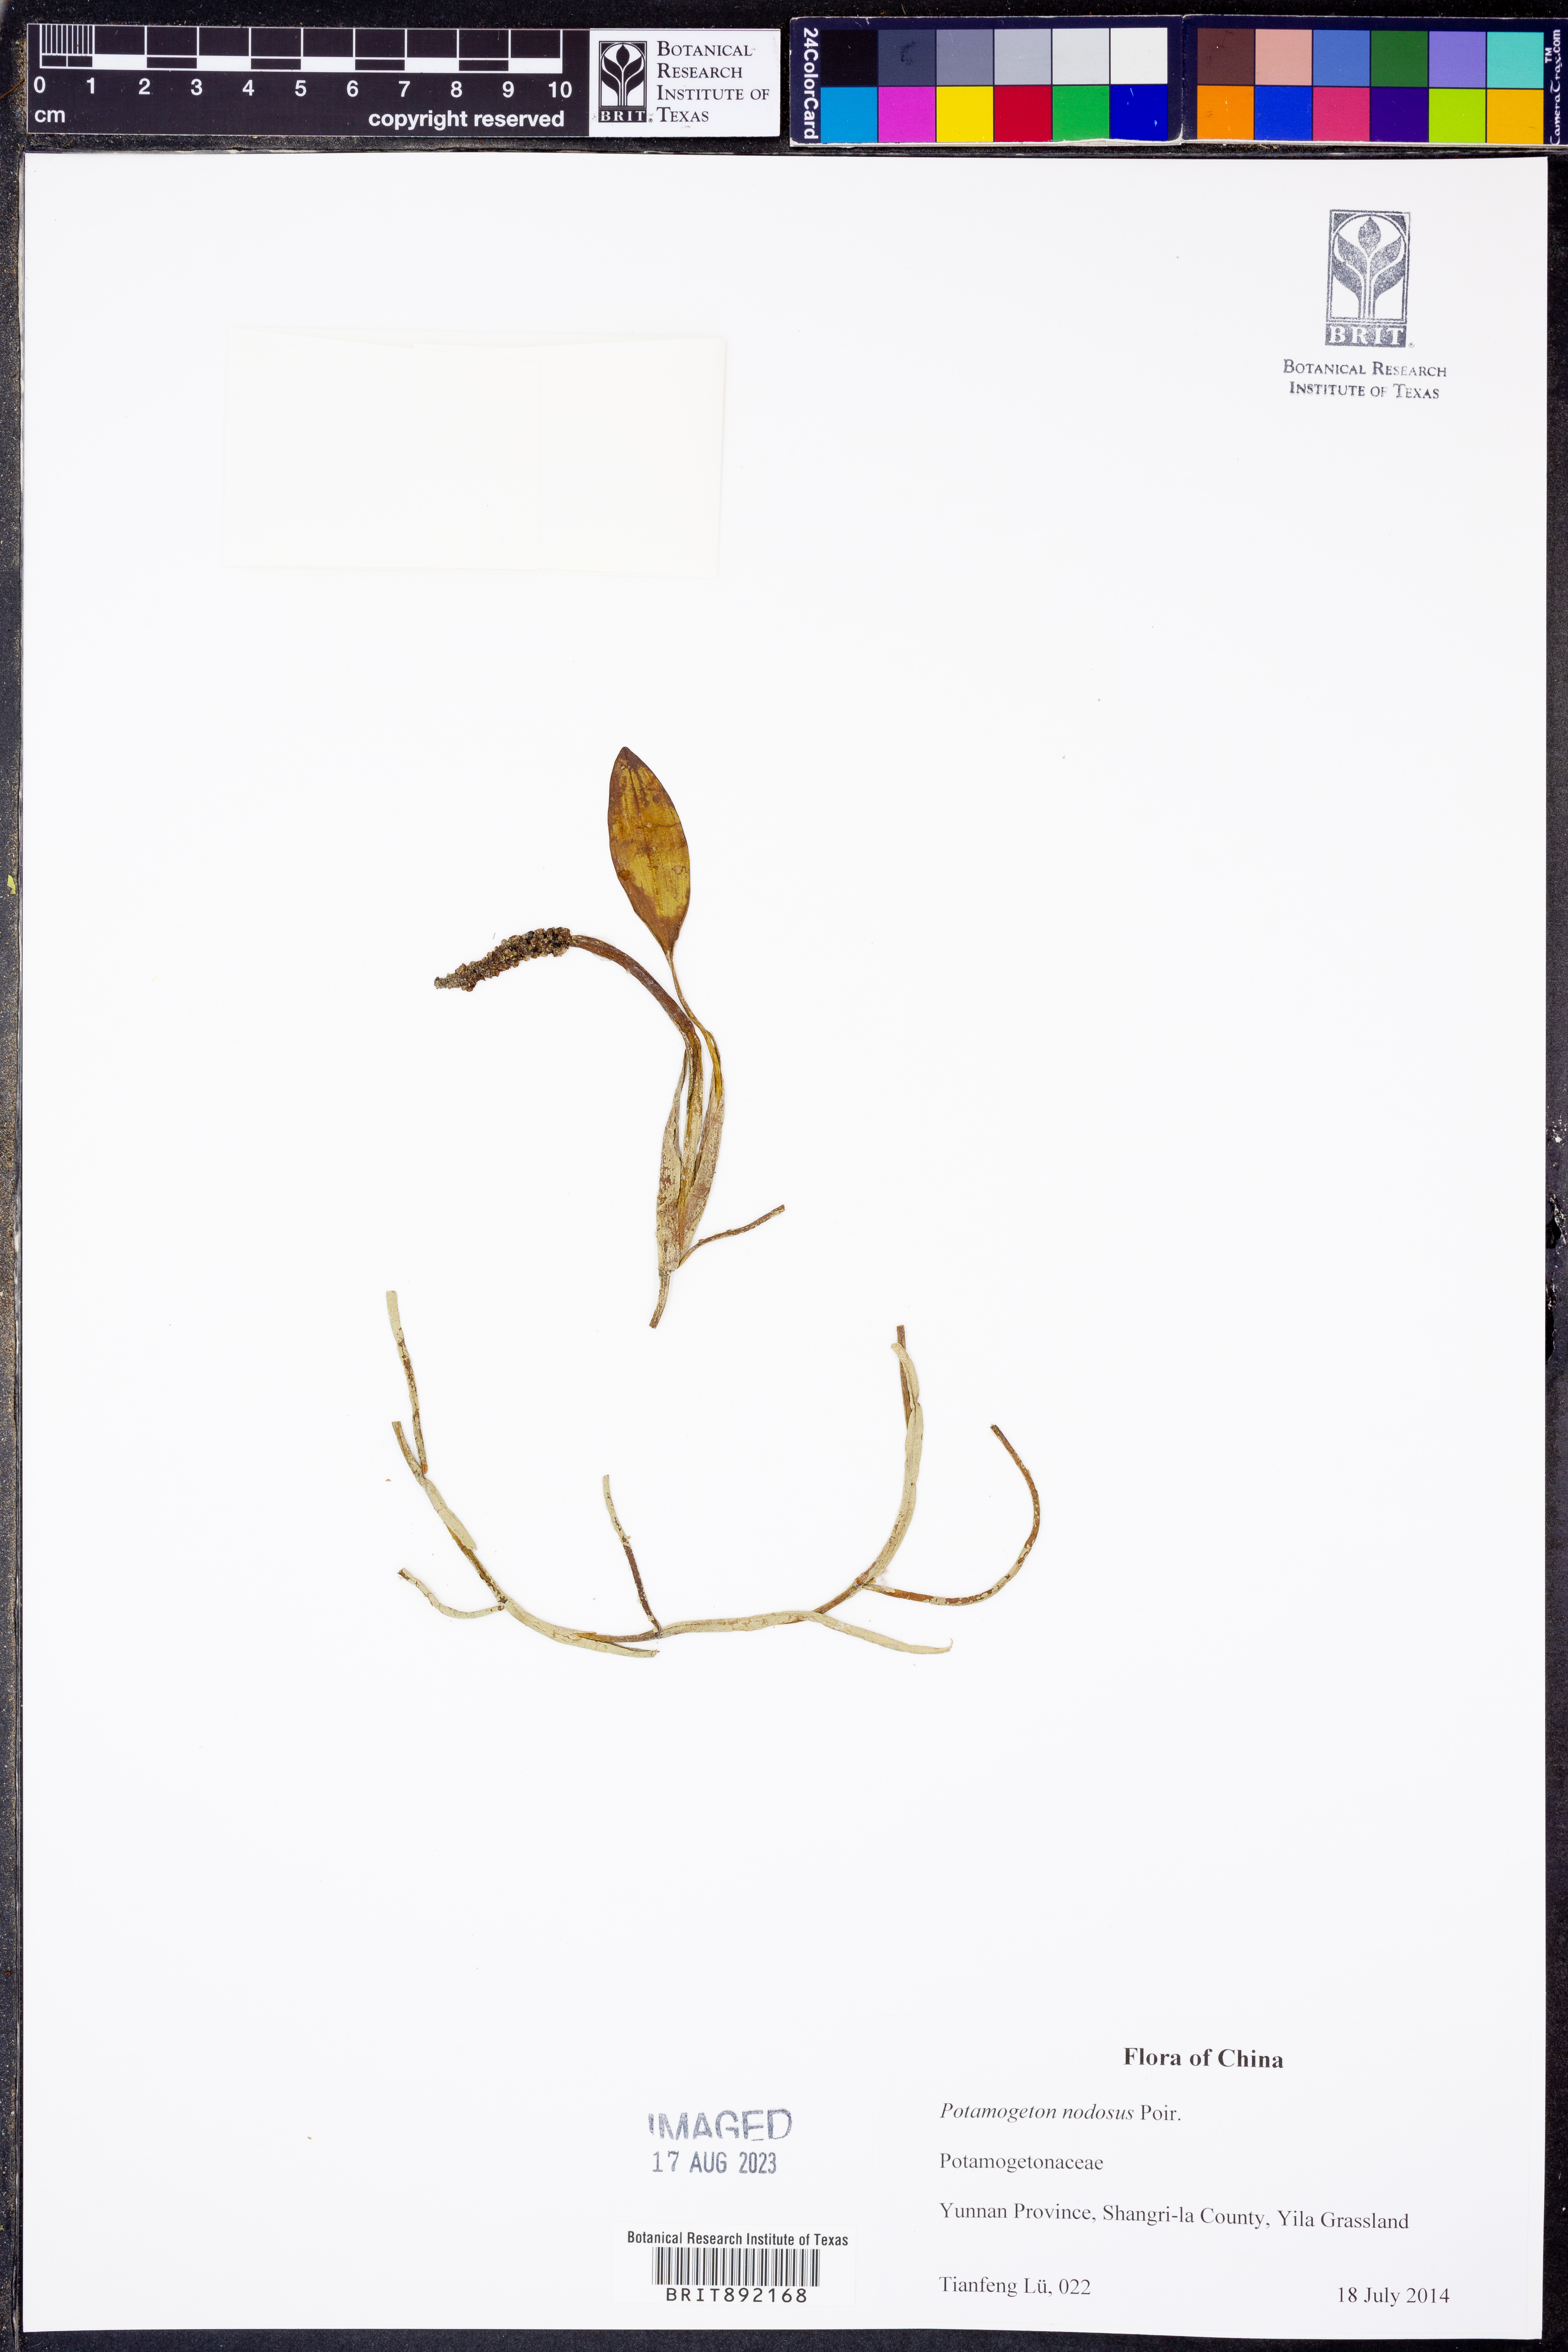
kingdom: Plantae
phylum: Tracheophyta
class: Liliopsida
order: Alismatales
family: Potamogetonaceae
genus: Potamogeton
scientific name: Potamogeton nodosus
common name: Loddon pondweed
